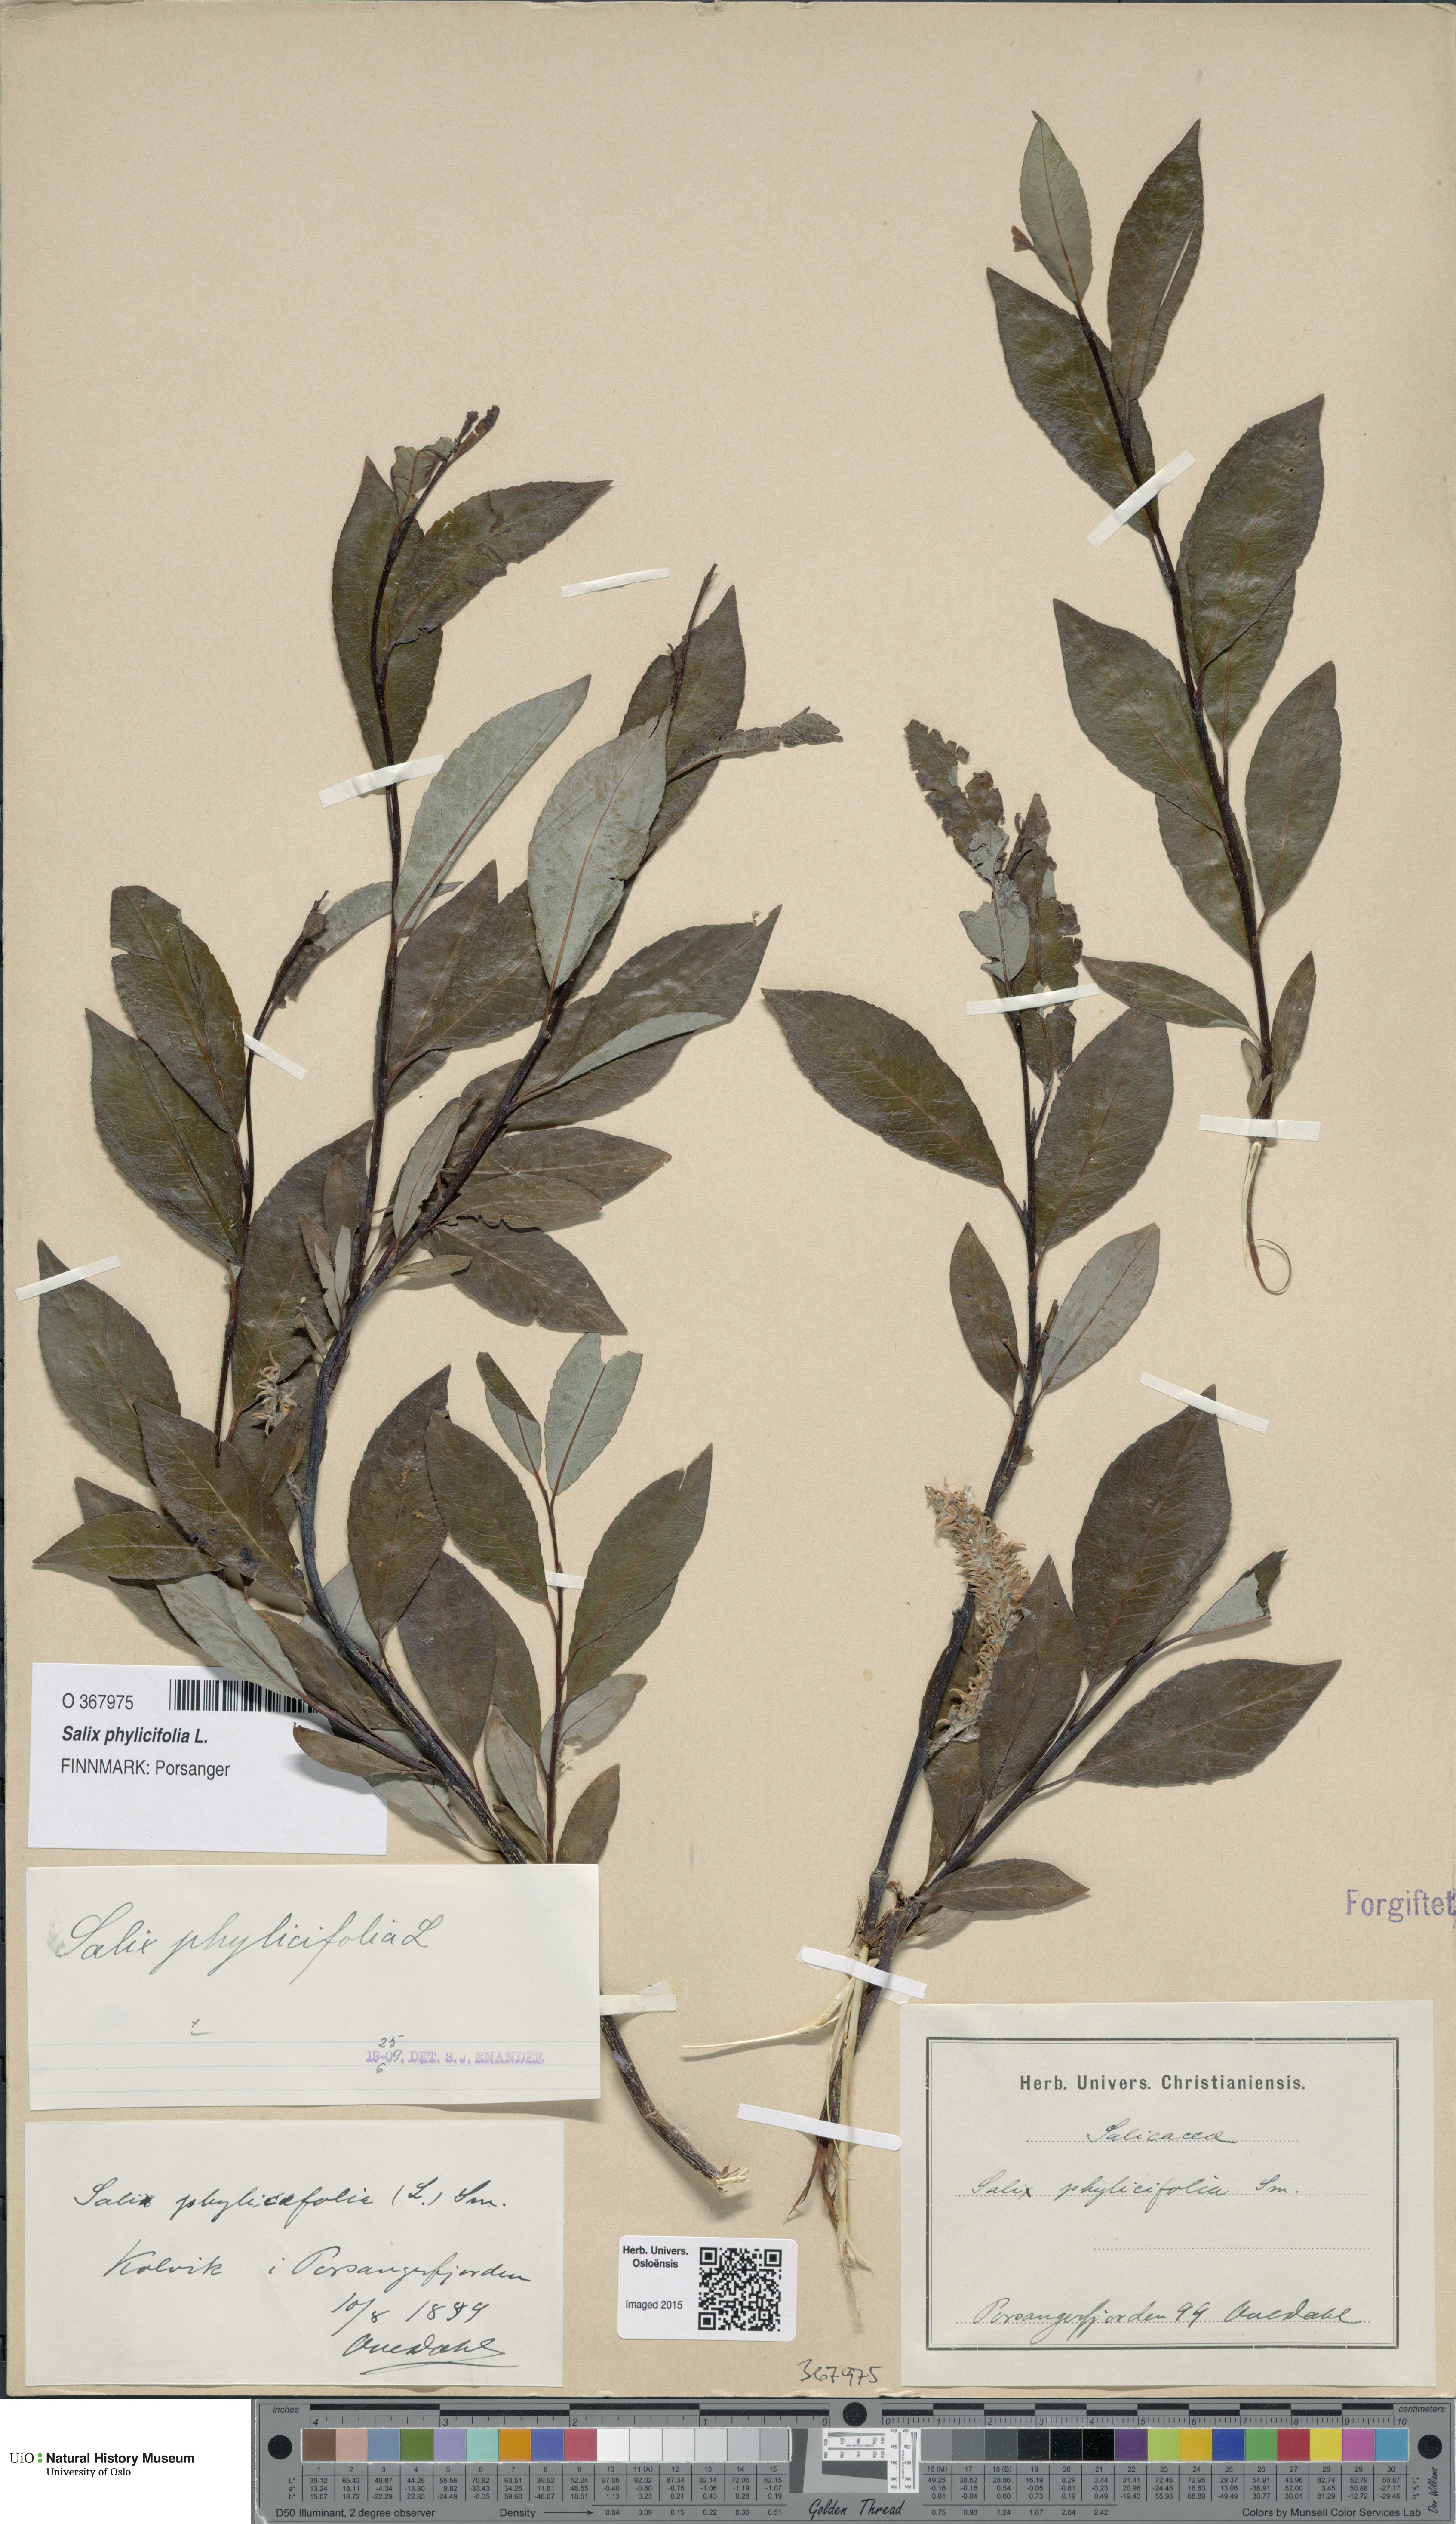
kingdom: Plantae
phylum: Tracheophyta
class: Magnoliopsida
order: Malpighiales
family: Salicaceae
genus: Salix
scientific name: Salix phylicifolia
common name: Tea-leaved willow
